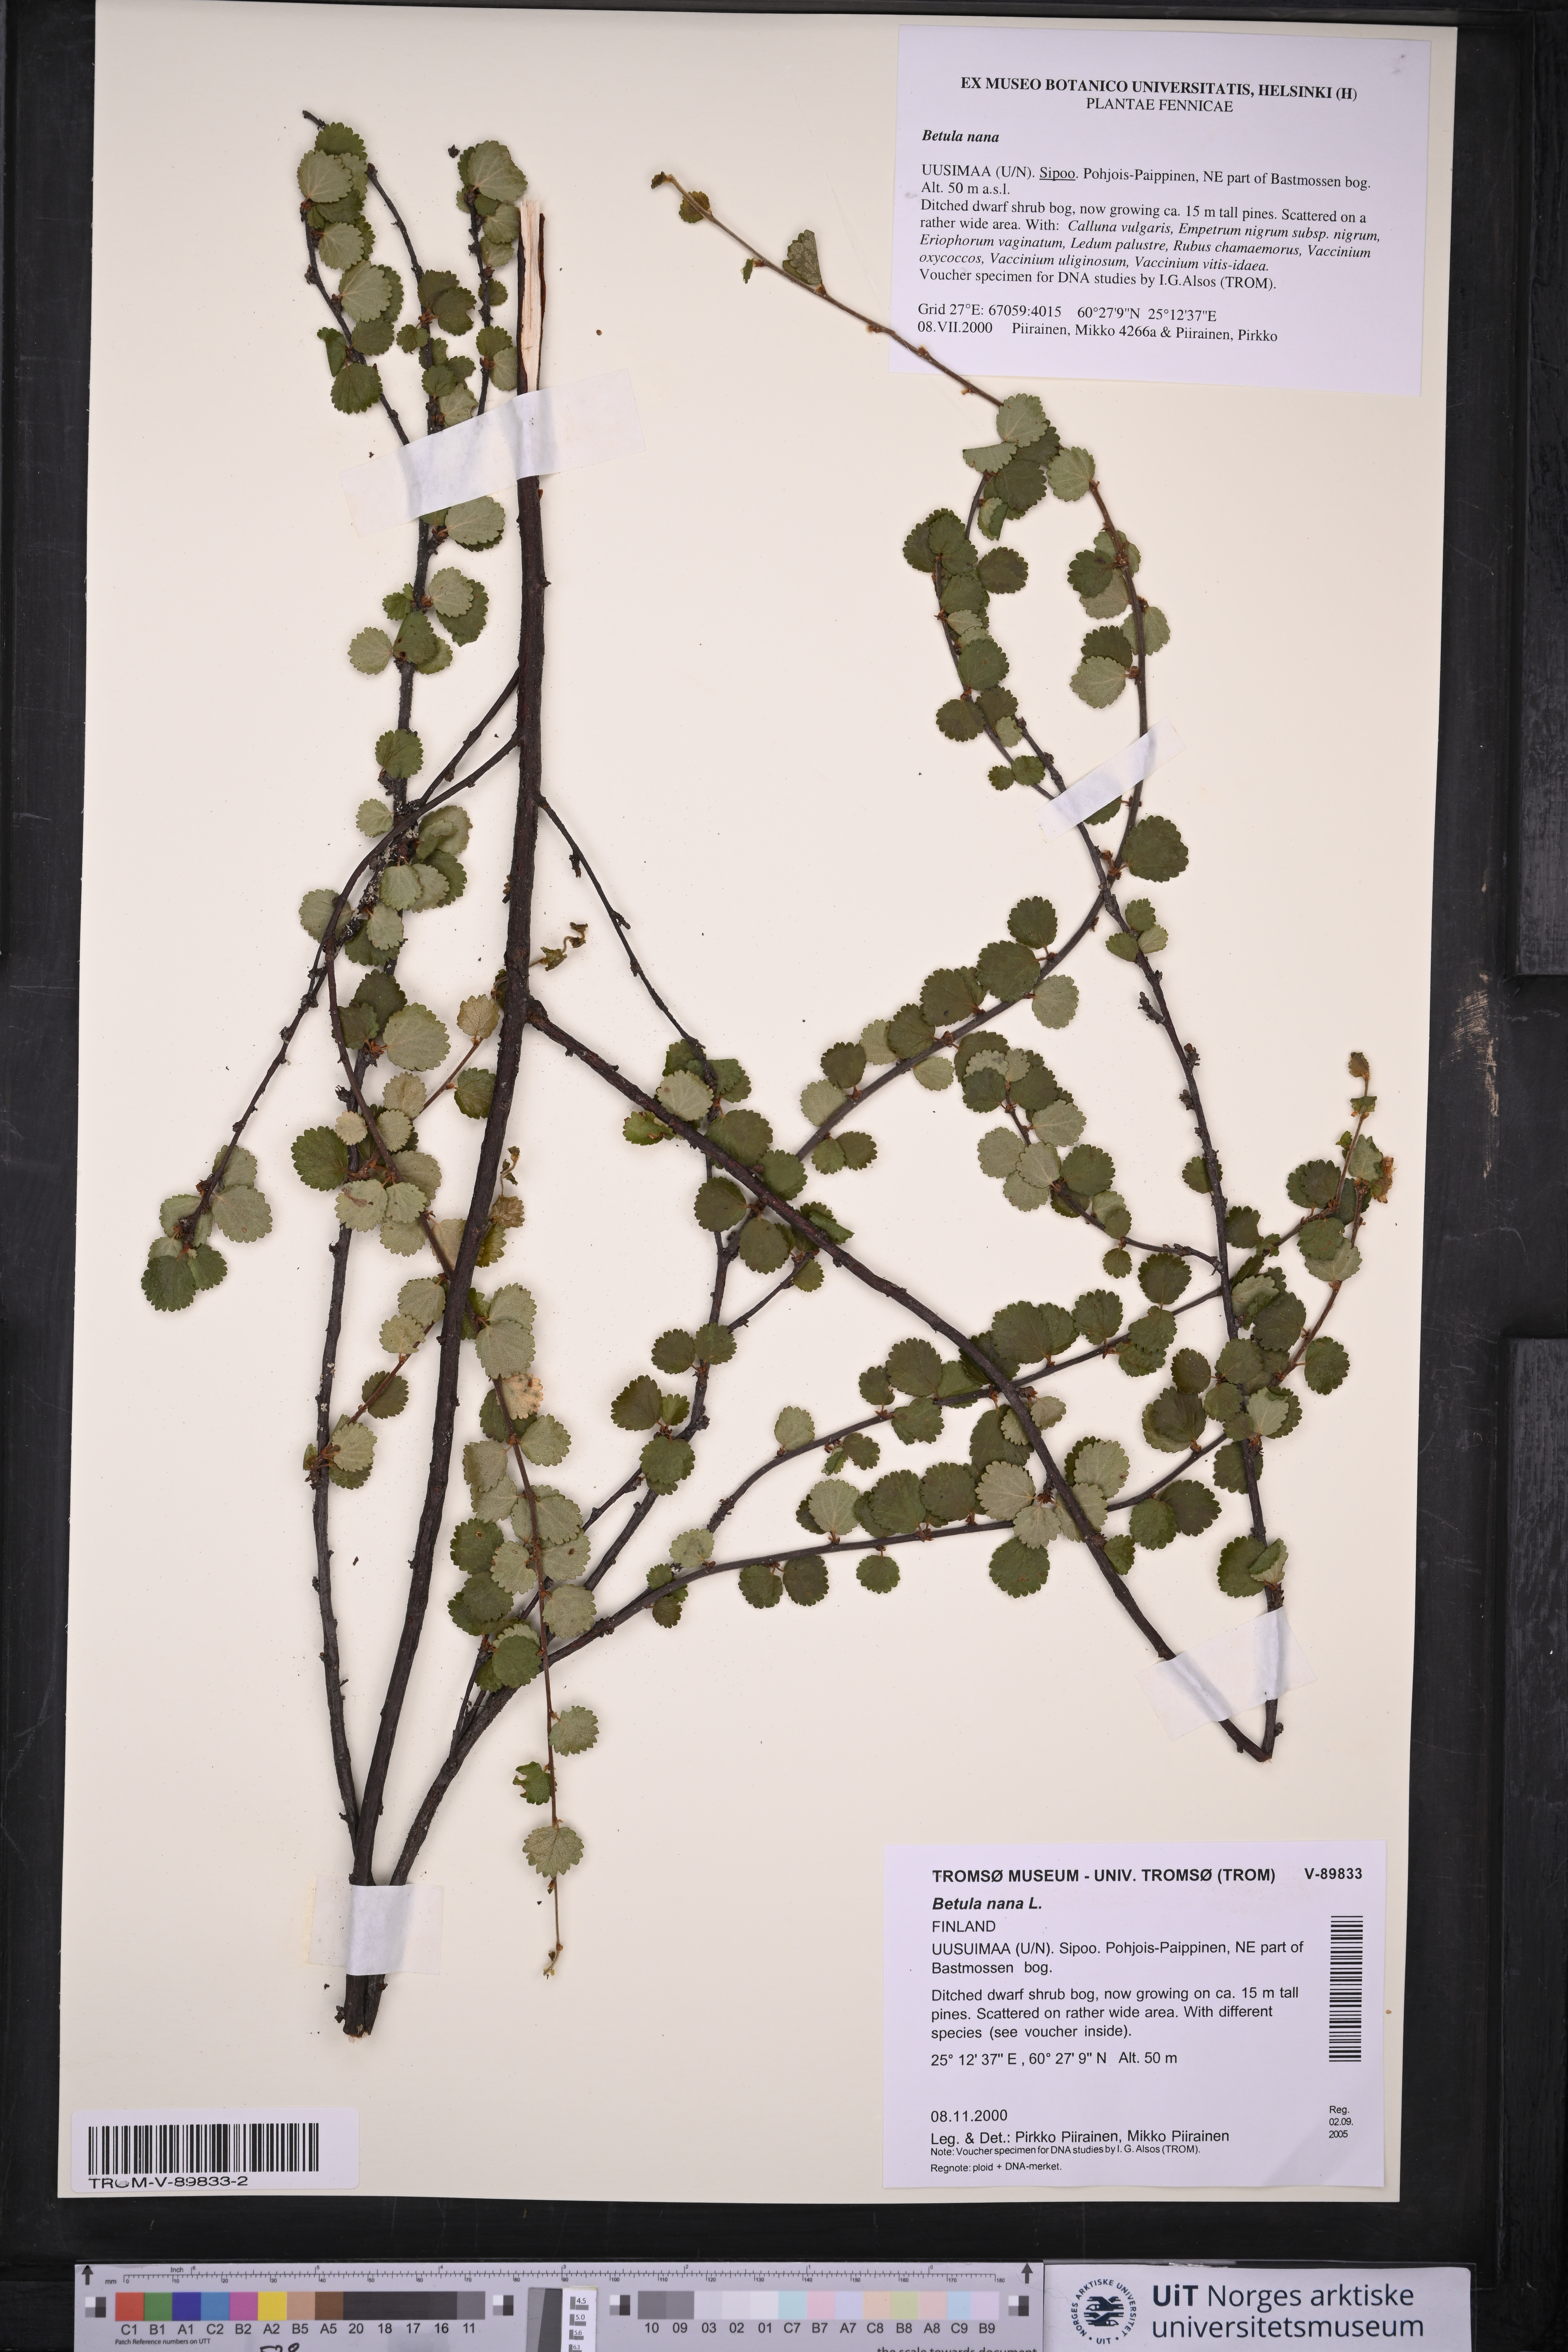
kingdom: Plantae
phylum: Tracheophyta
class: Magnoliopsida
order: Fagales
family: Betulaceae
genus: Betula
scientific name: Betula nana
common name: Arctic dwarf birch
